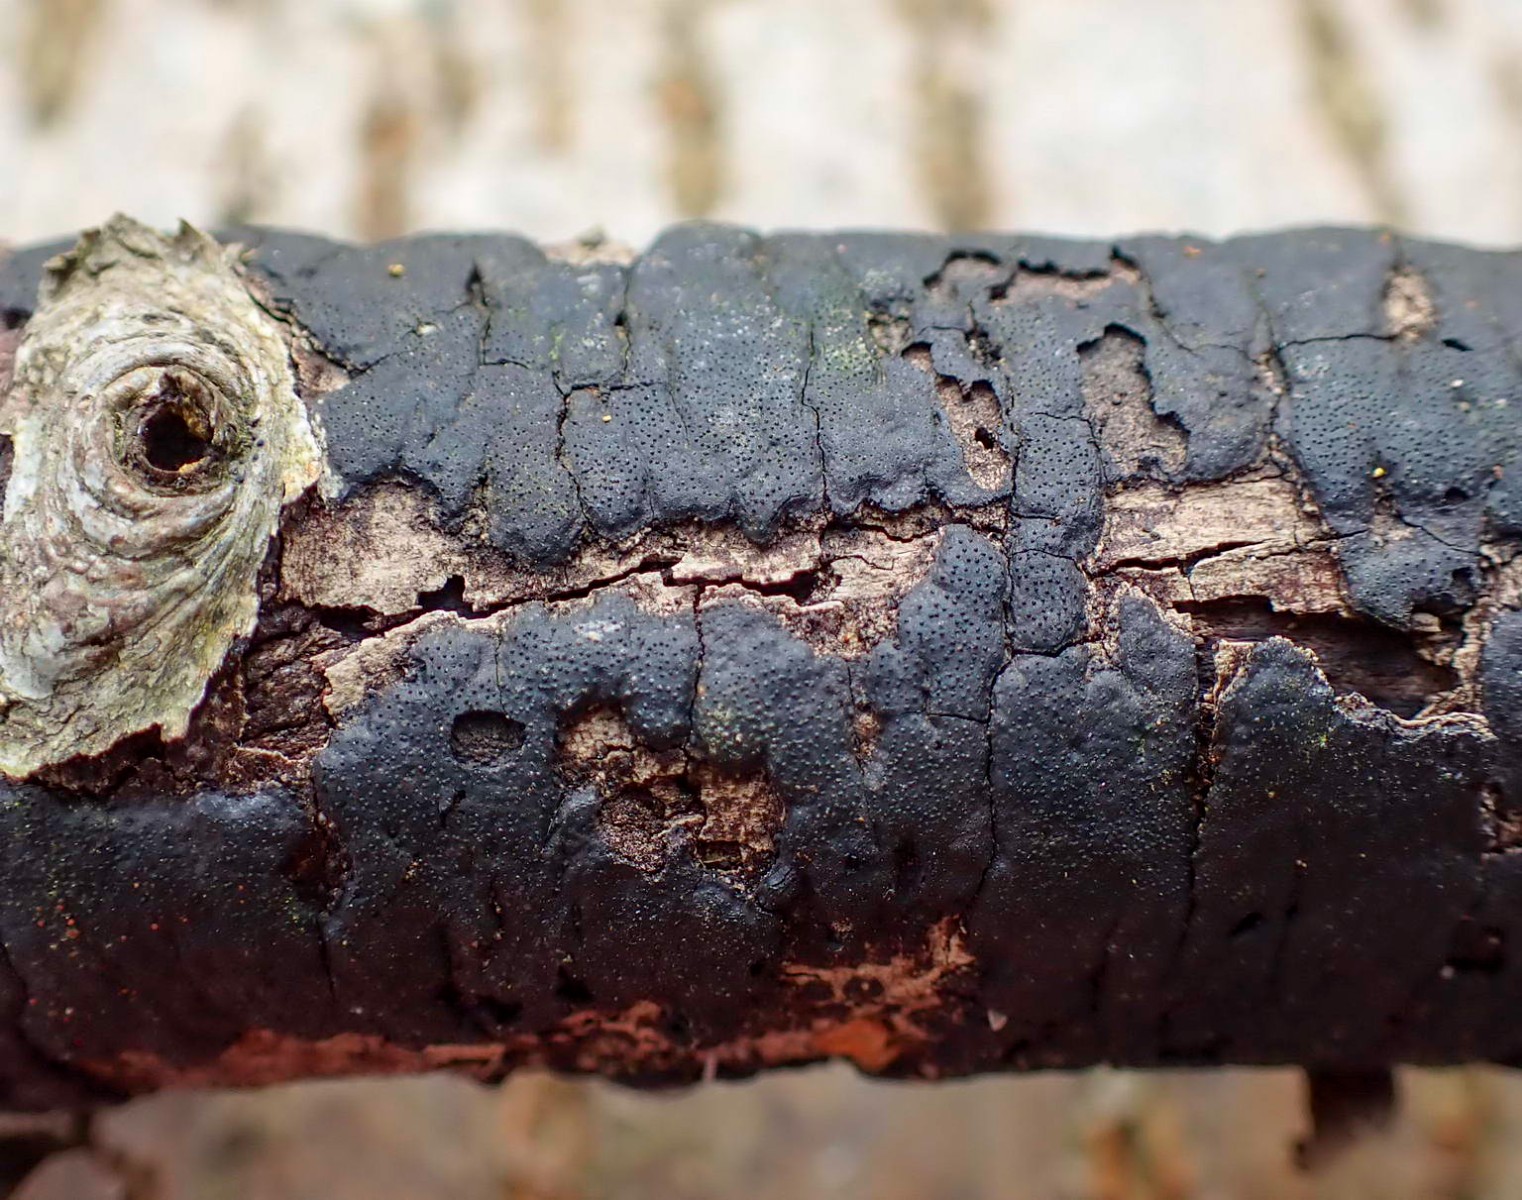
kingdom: Fungi
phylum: Ascomycota
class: Sordariomycetes
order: Xylariales
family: Diatrypaceae
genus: Diatrype
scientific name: Diatrype
